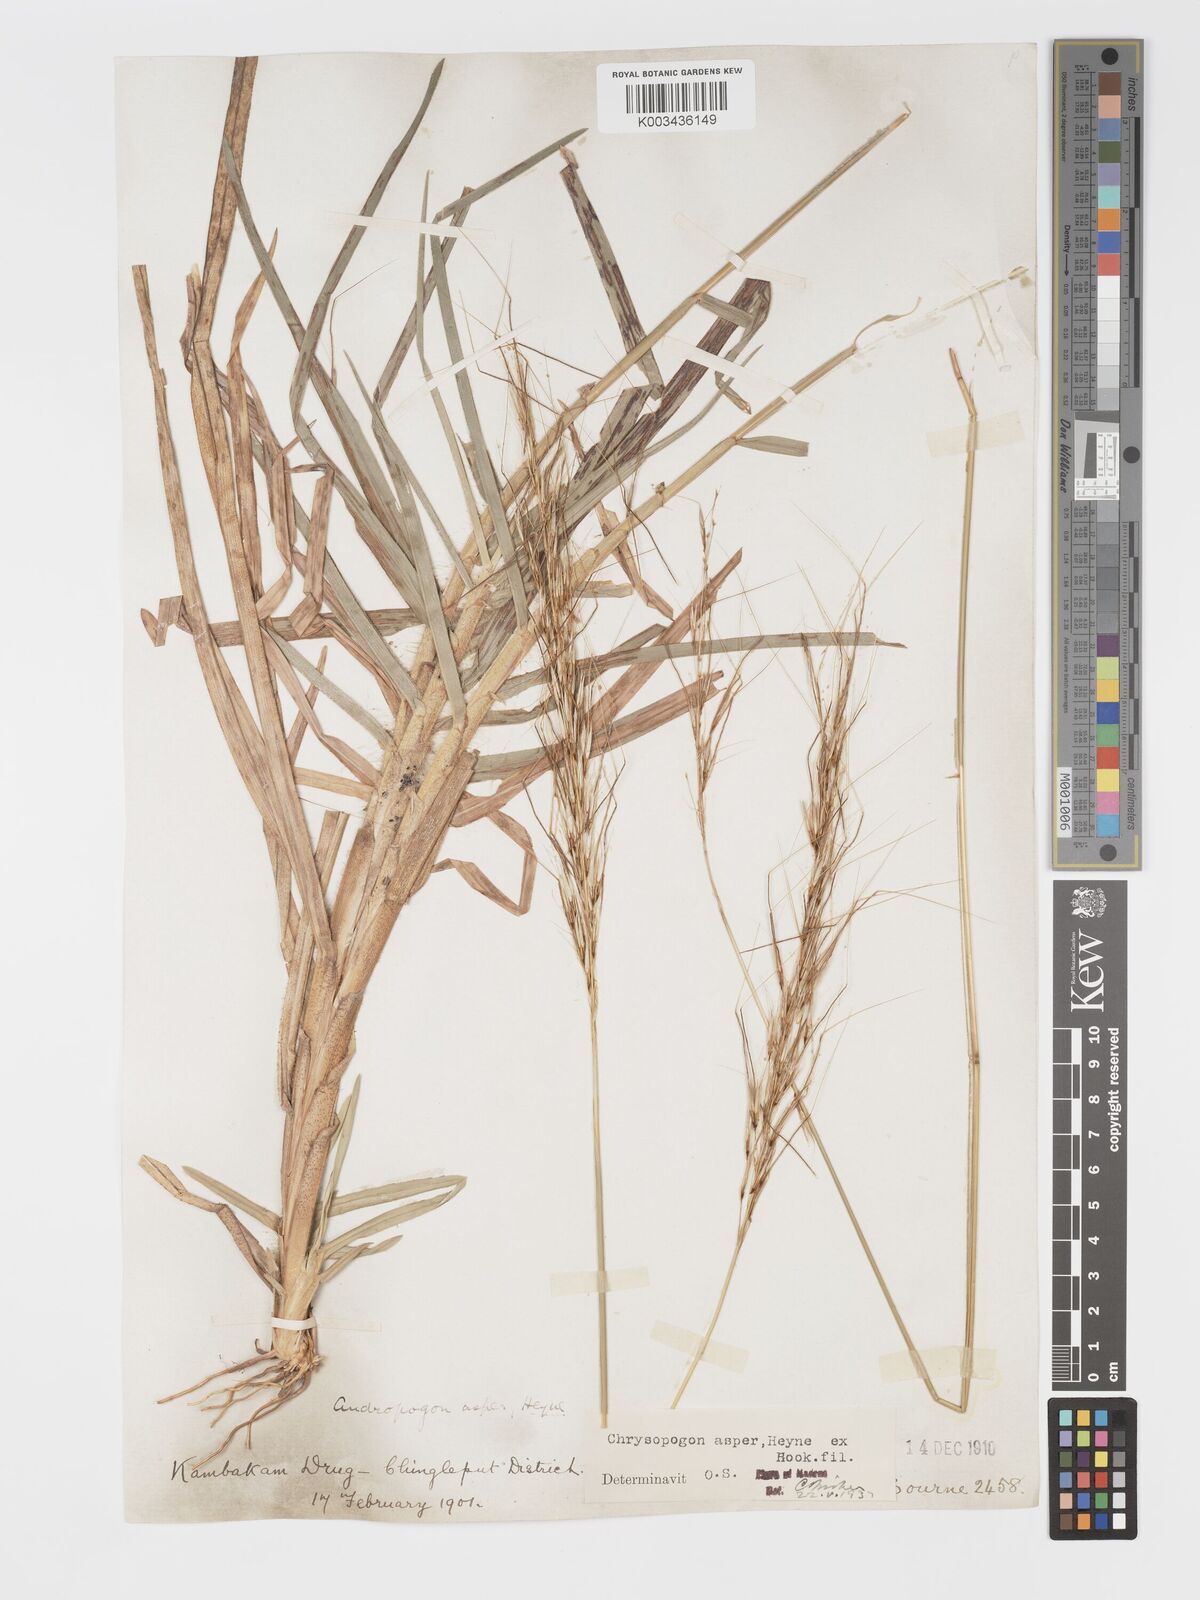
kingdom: Plantae
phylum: Tracheophyta
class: Liliopsida
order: Poales
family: Poaceae
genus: Chrysopogon
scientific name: Chrysopogon asper
